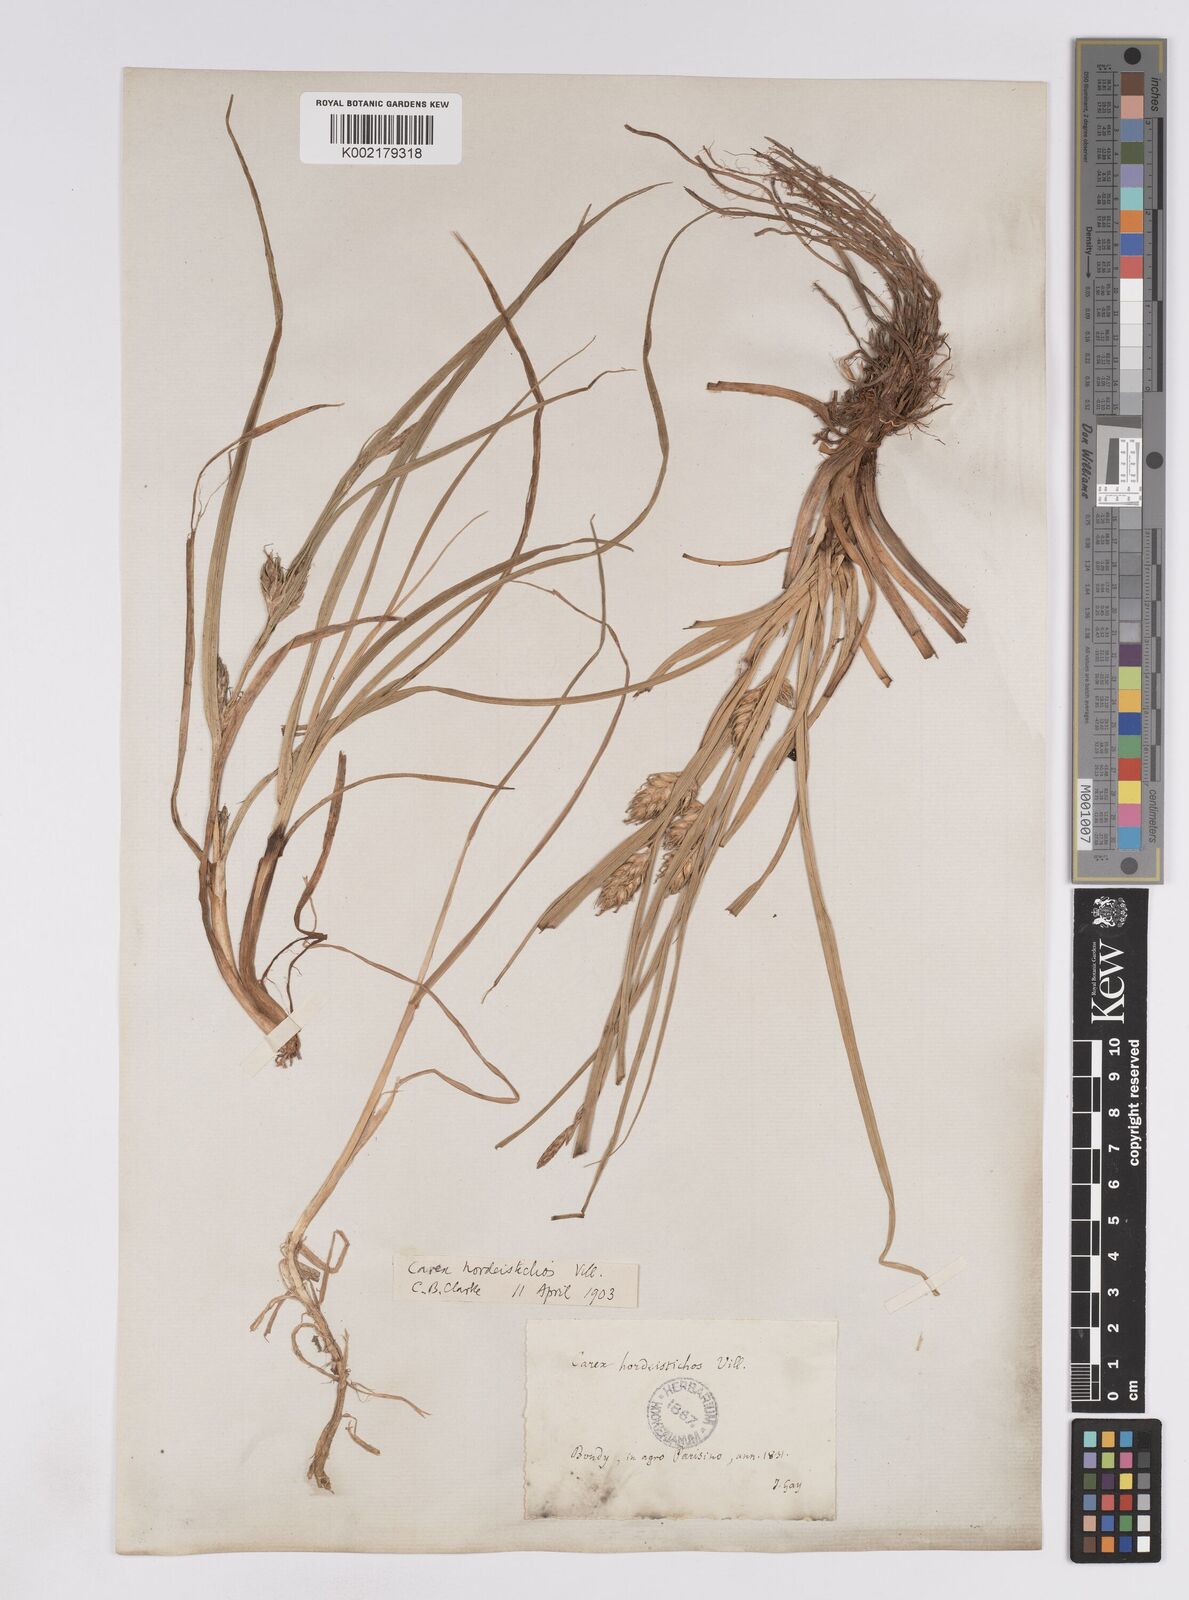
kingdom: Plantae
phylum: Tracheophyta
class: Liliopsida
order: Poales
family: Cyperaceae
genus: Carex
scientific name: Carex hordeistichos
